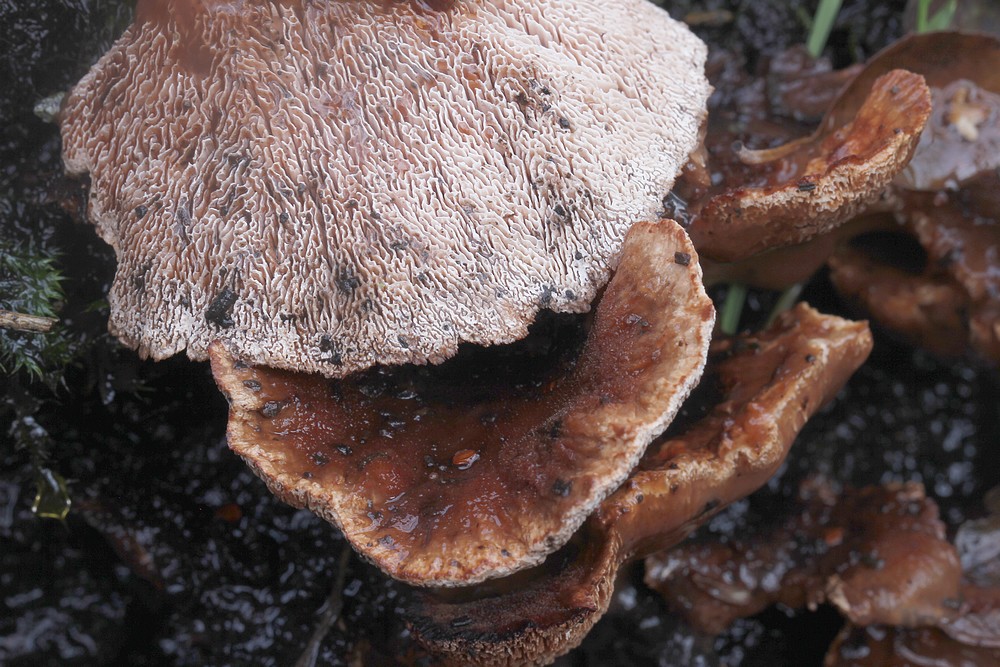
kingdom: Fungi
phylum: Basidiomycota
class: Agaricomycetes
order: Polyporales
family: Podoscyphaceae
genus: Abortiporus
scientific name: Abortiporus biennis
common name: rødmende pjalteporesvamp
